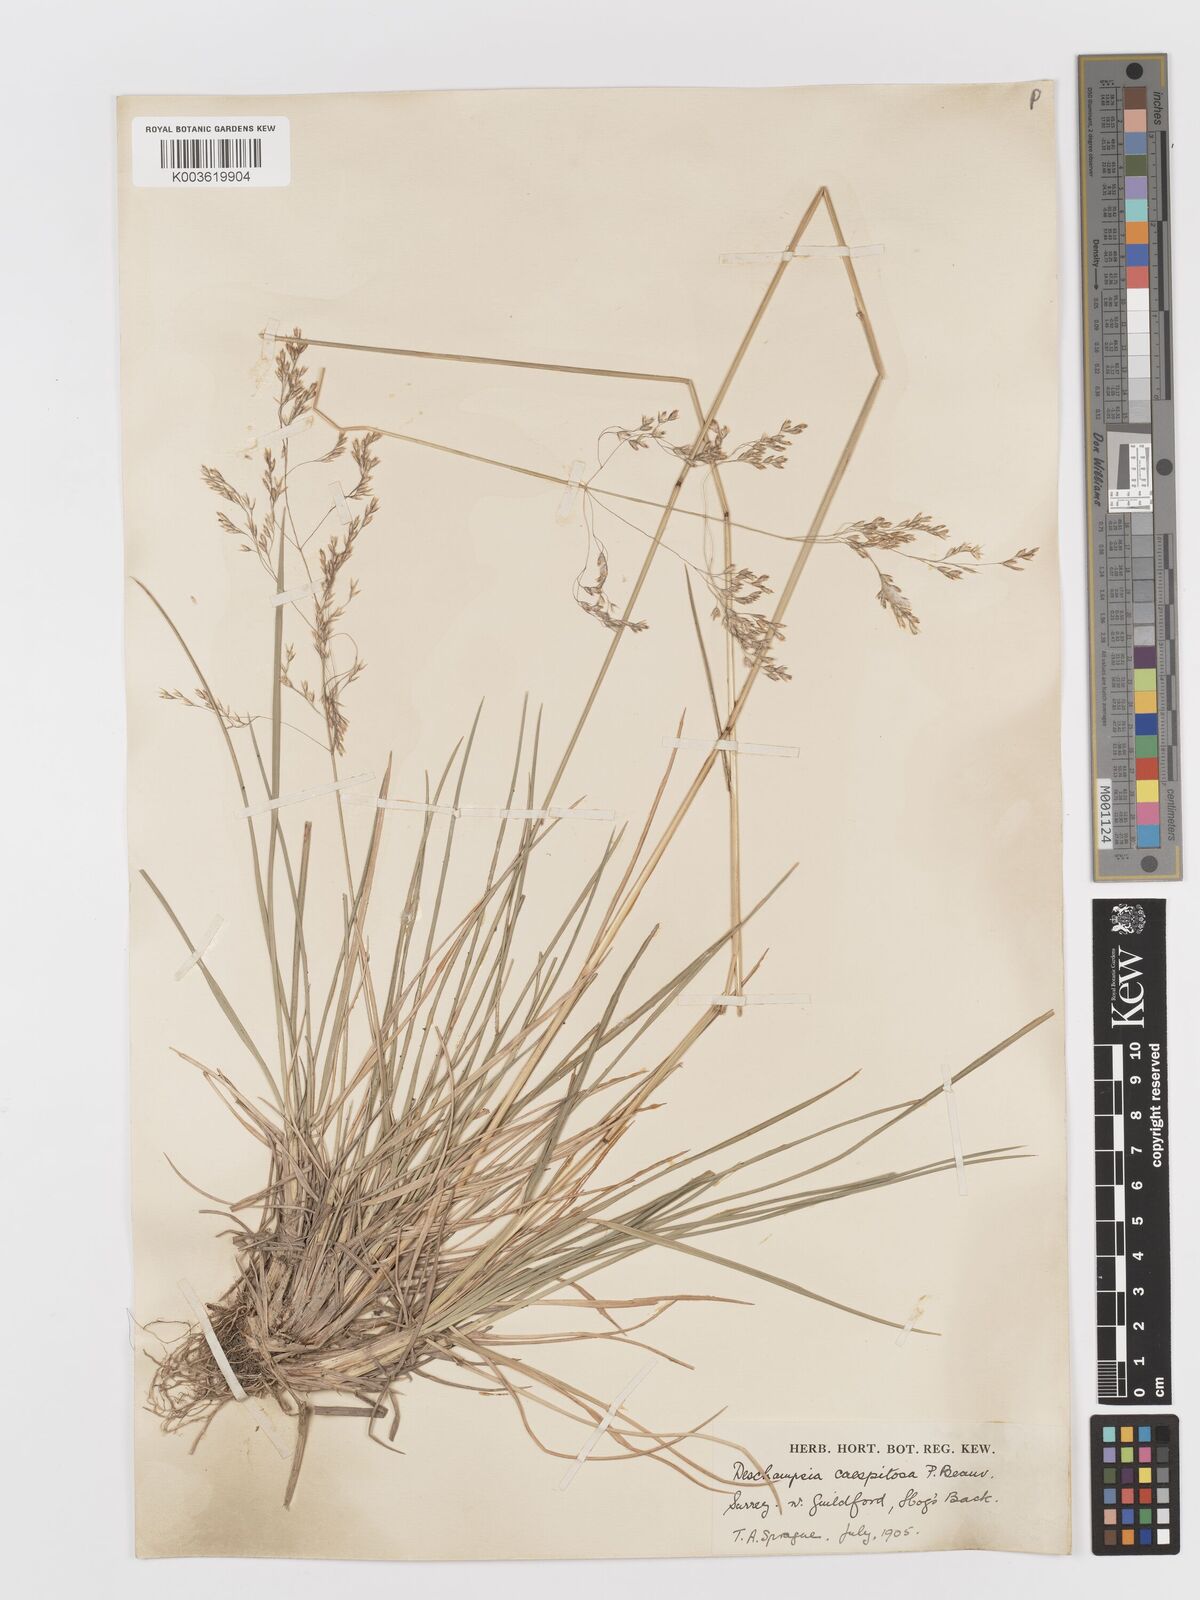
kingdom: Plantae
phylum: Tracheophyta
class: Liliopsida
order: Poales
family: Poaceae
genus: Deschampsia
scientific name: Deschampsia
